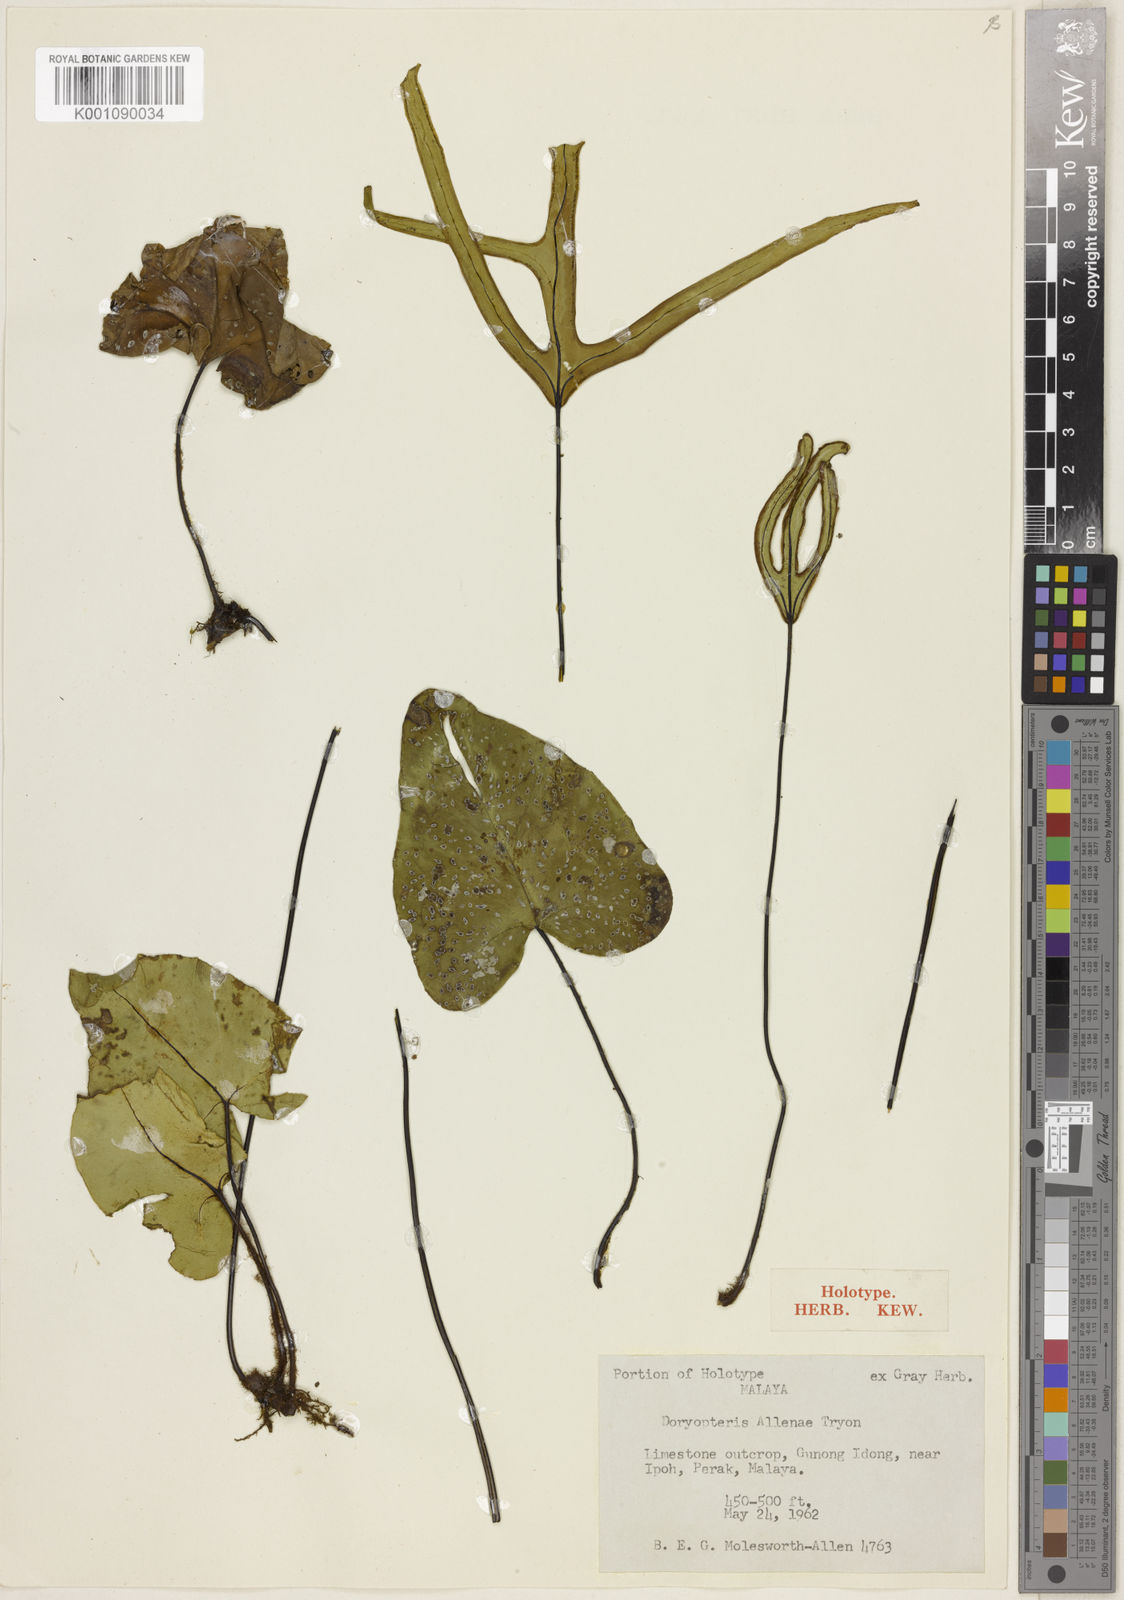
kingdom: Plantae
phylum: Tracheophyta
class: Polypodiopsida
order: Polypodiales
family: Pteridaceae
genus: Calciphilopteris
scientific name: Calciphilopteris alleniae
